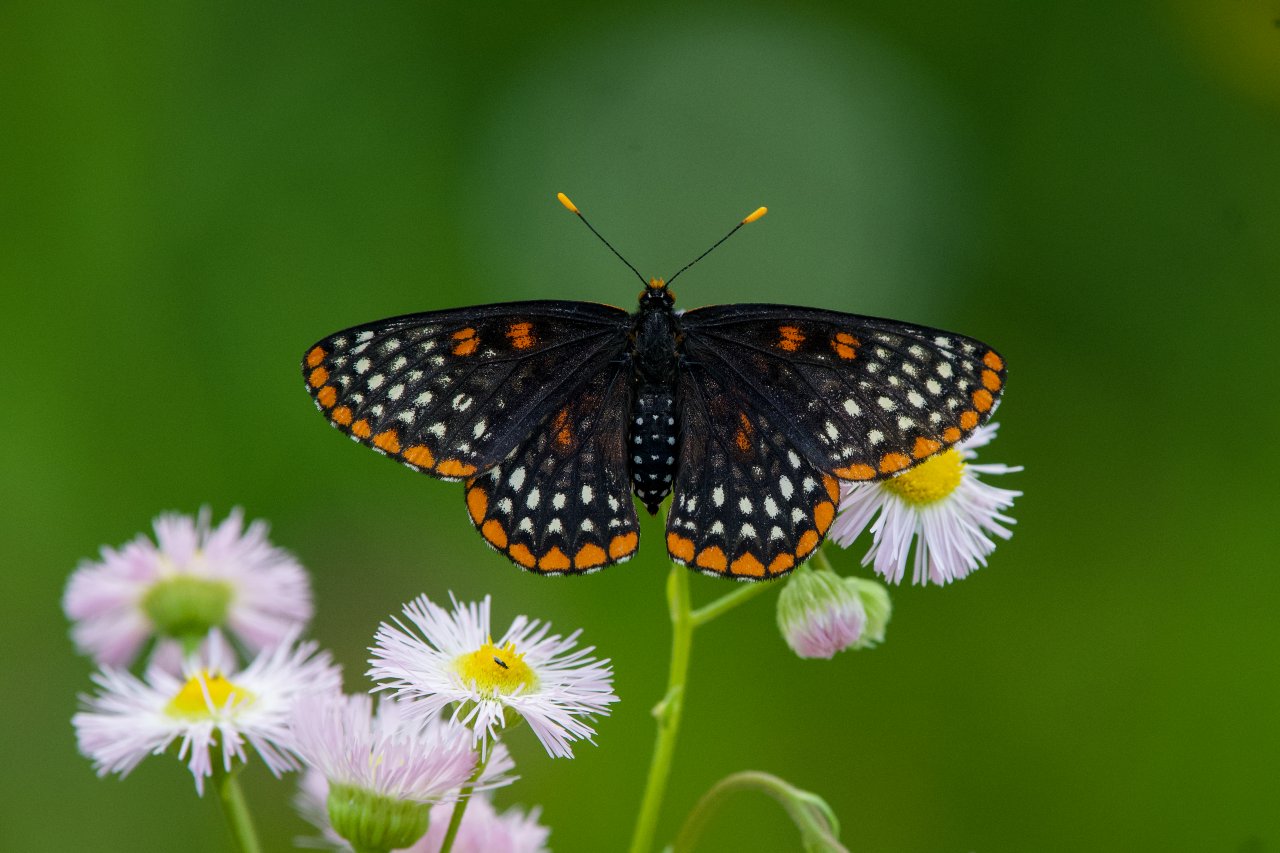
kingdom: Animalia
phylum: Arthropoda
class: Insecta
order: Lepidoptera
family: Nymphalidae
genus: Euphydryas
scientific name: Euphydryas phaeton
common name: Baltimore Checkerspot
